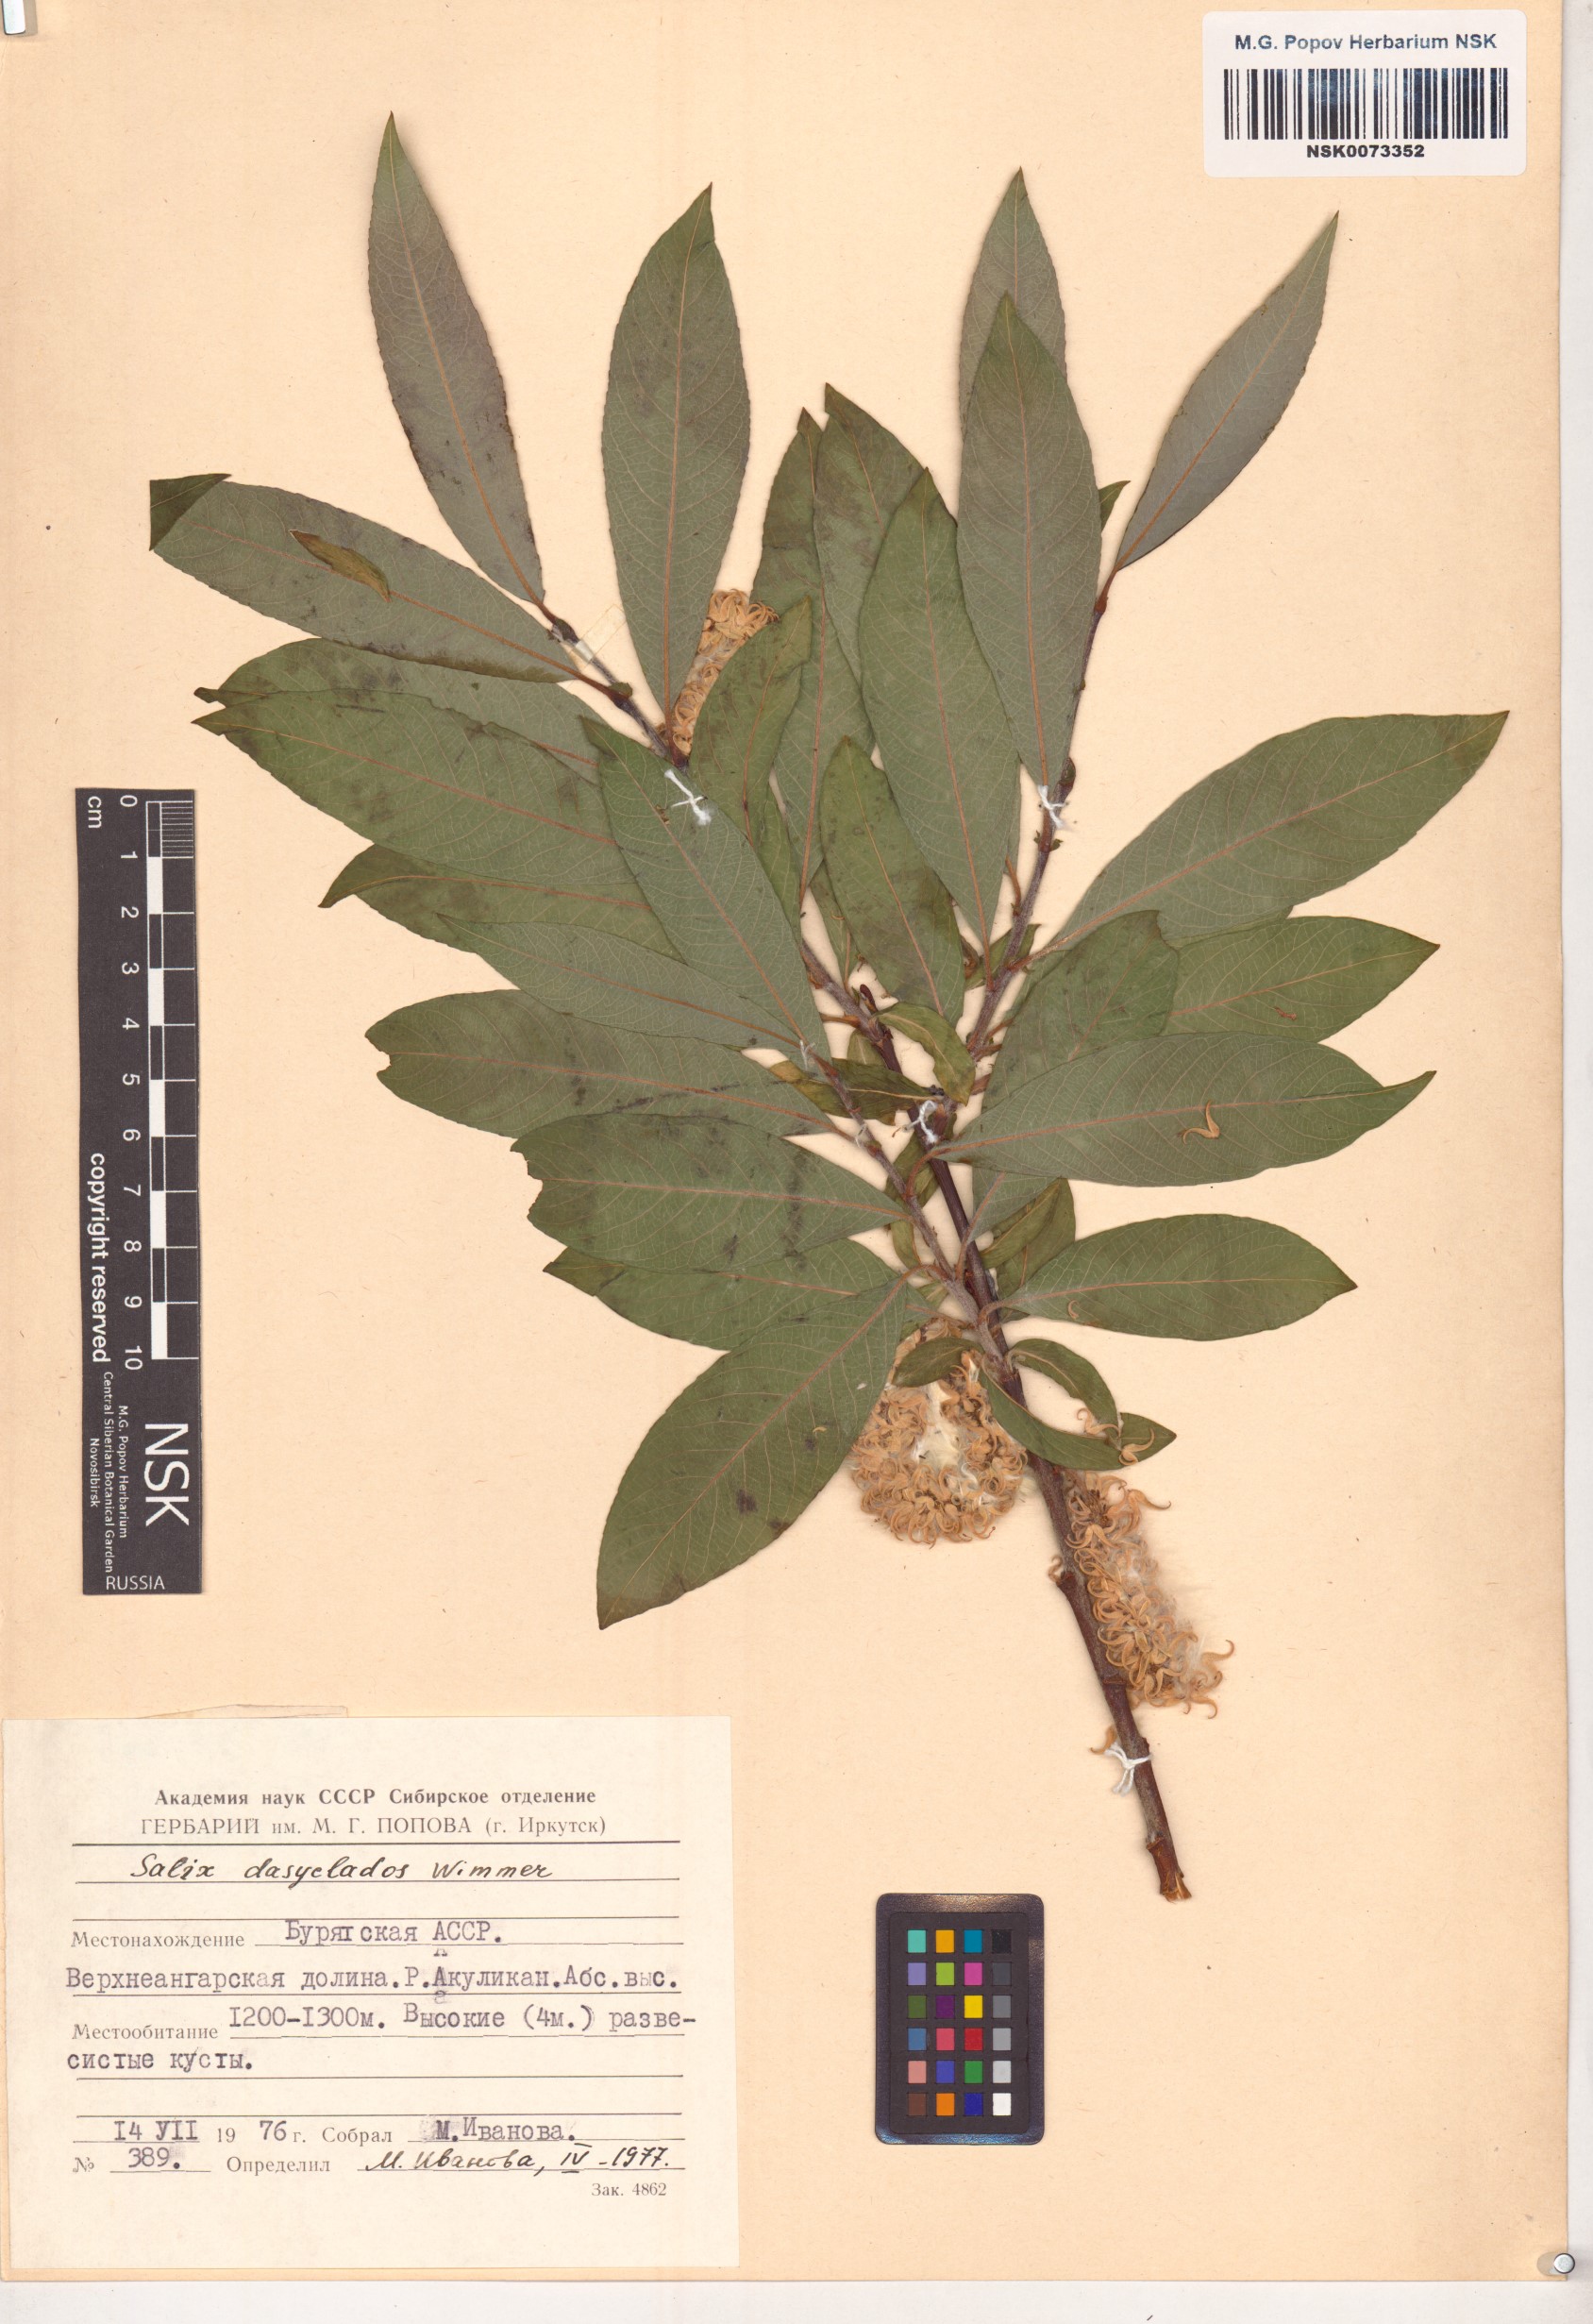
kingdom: Plantae
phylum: Tracheophyta
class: Magnoliopsida
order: Malpighiales
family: Salicaceae
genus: Salix
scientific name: Salix gmelinii
